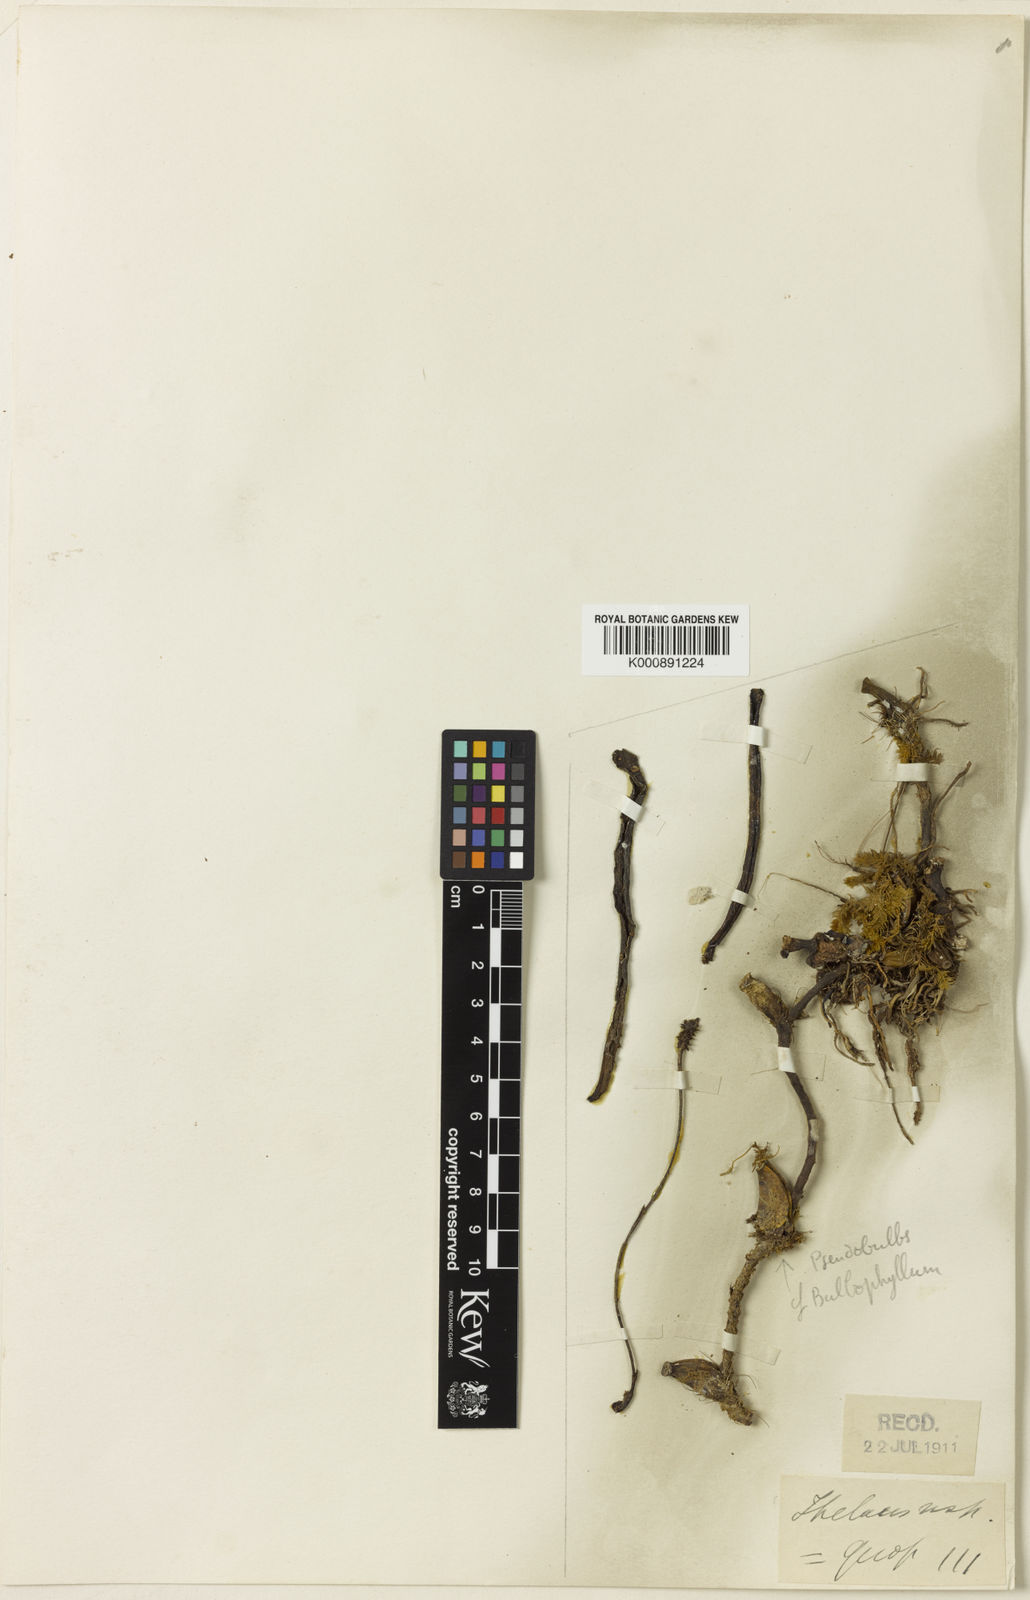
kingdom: Plantae
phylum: Tracheophyta
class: Liliopsida
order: Asparagales
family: Orchidaceae
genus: Thelasis
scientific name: Thelasis cebolleta
